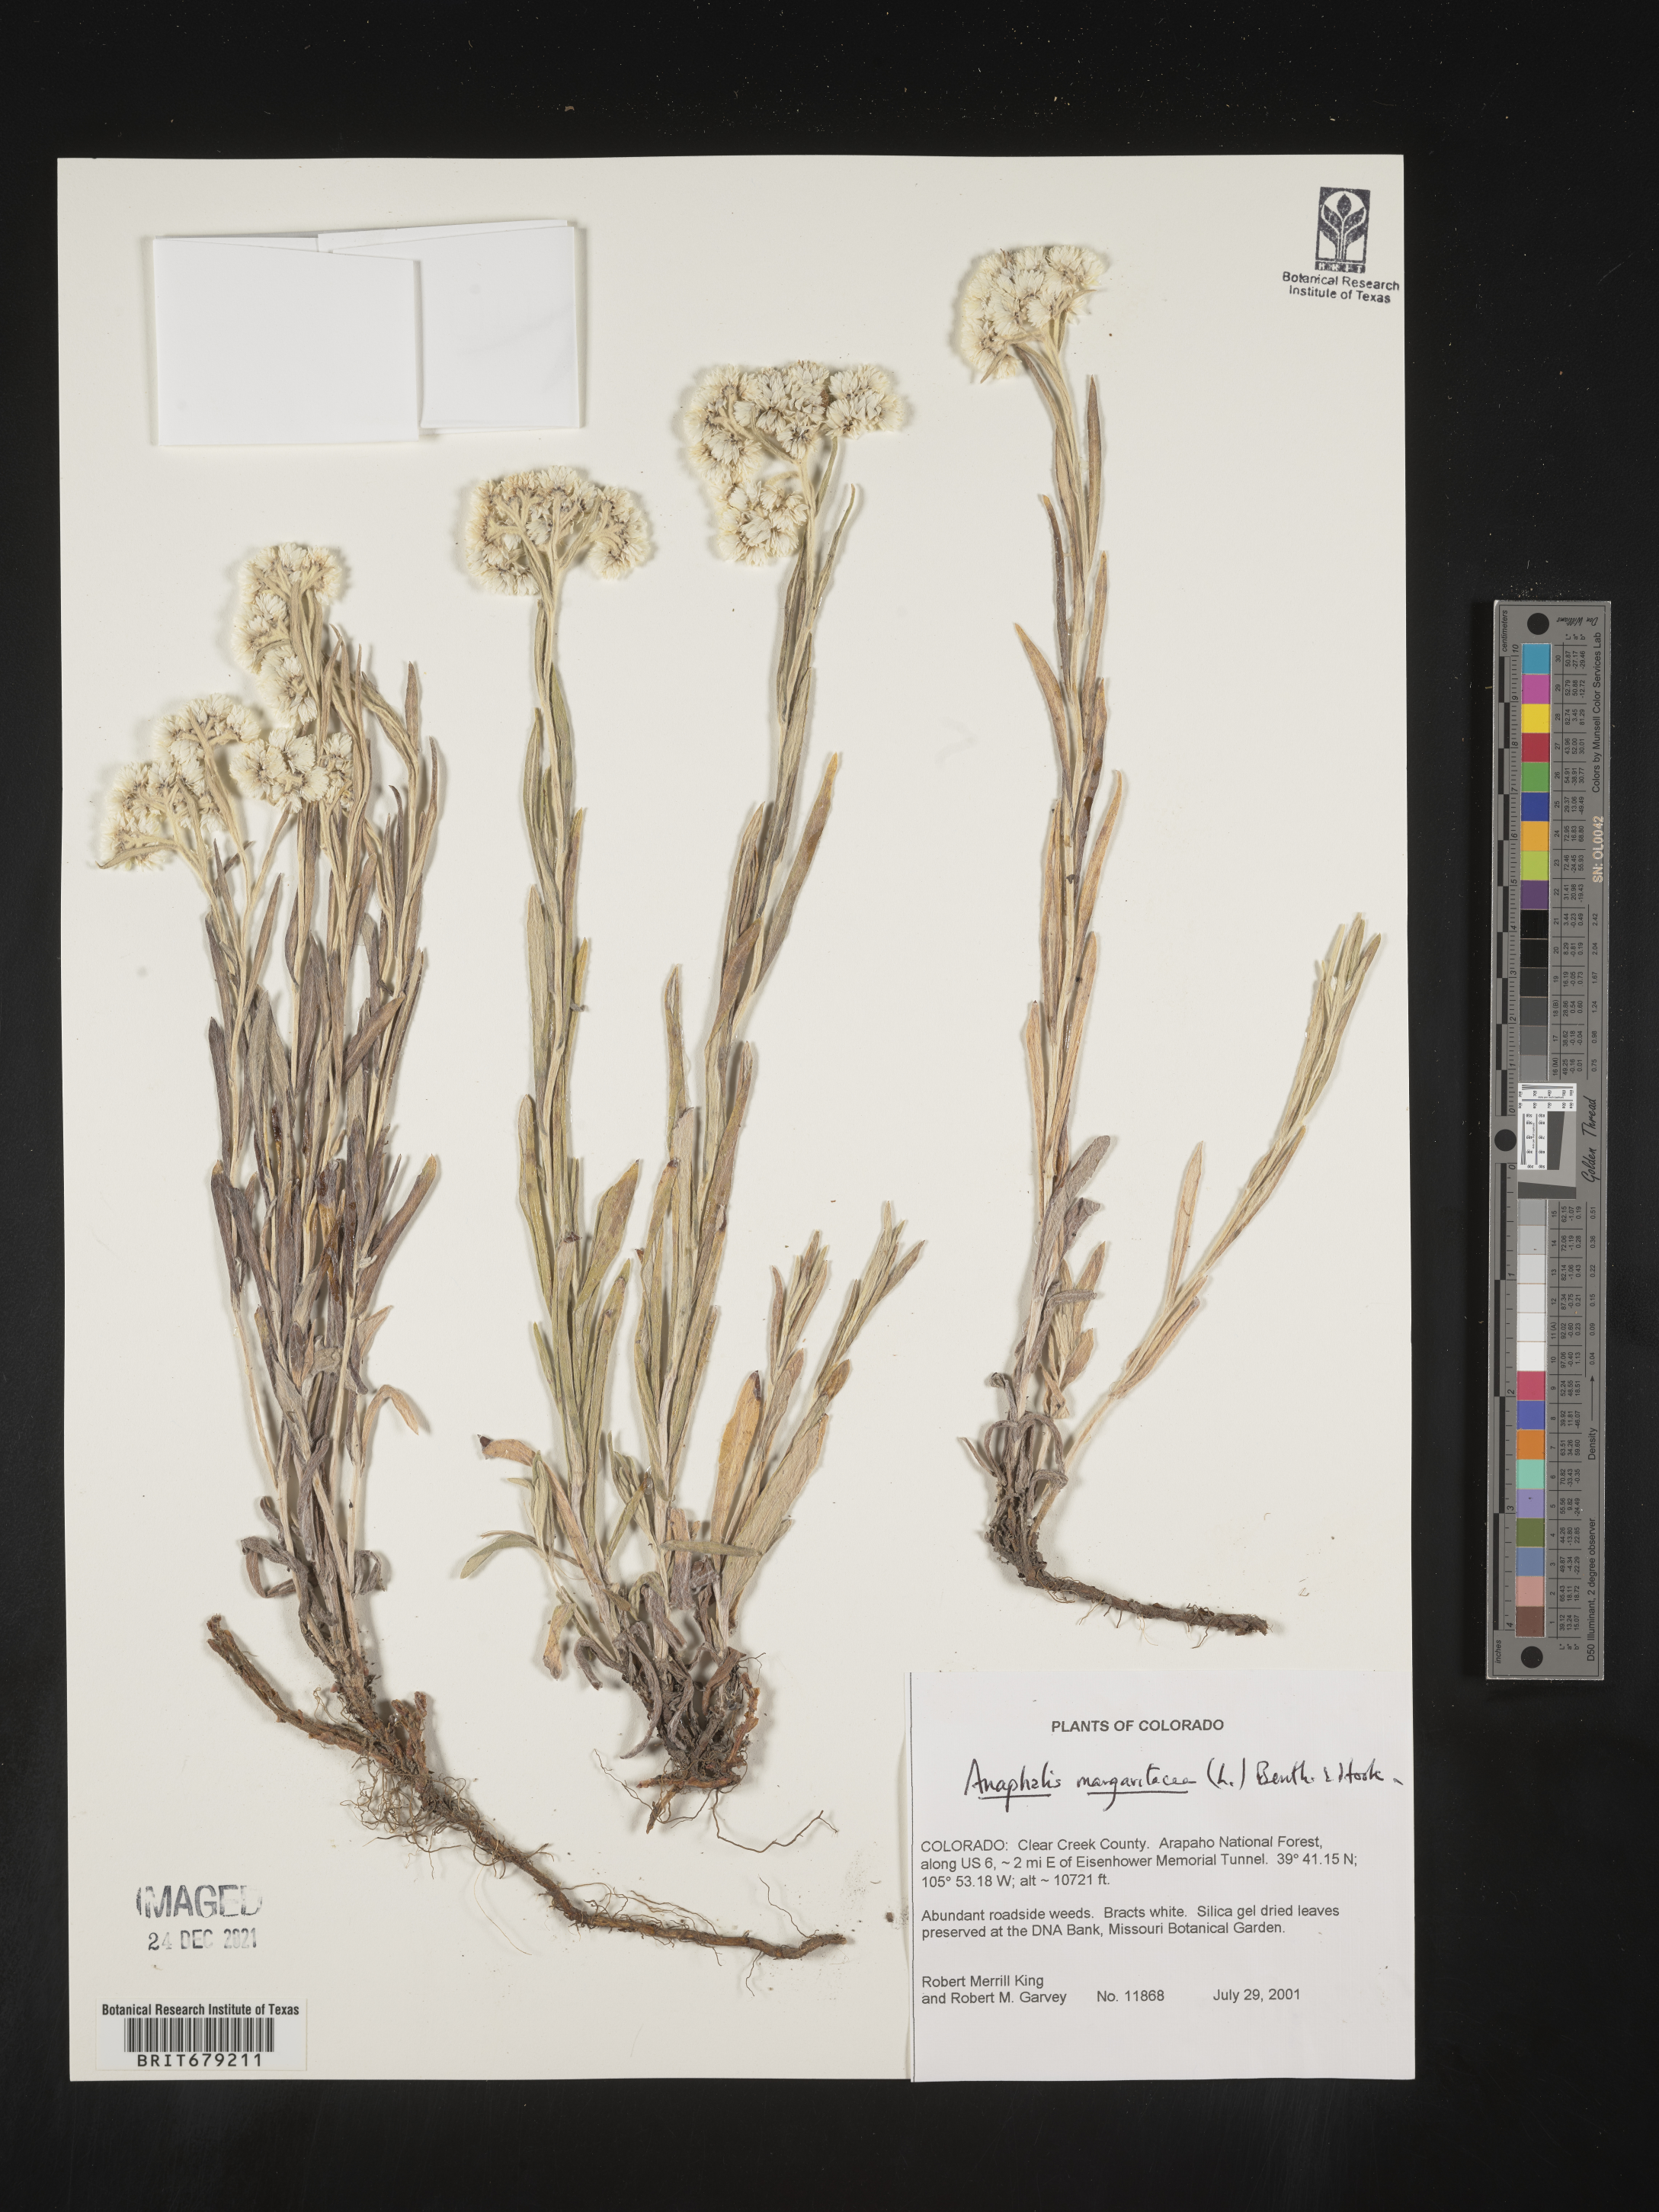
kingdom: Plantae
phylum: Tracheophyta
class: Magnoliopsida
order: Asterales
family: Asteraceae
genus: Anaphalis
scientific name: Anaphalis margaritacea
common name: Pearly everlasting
